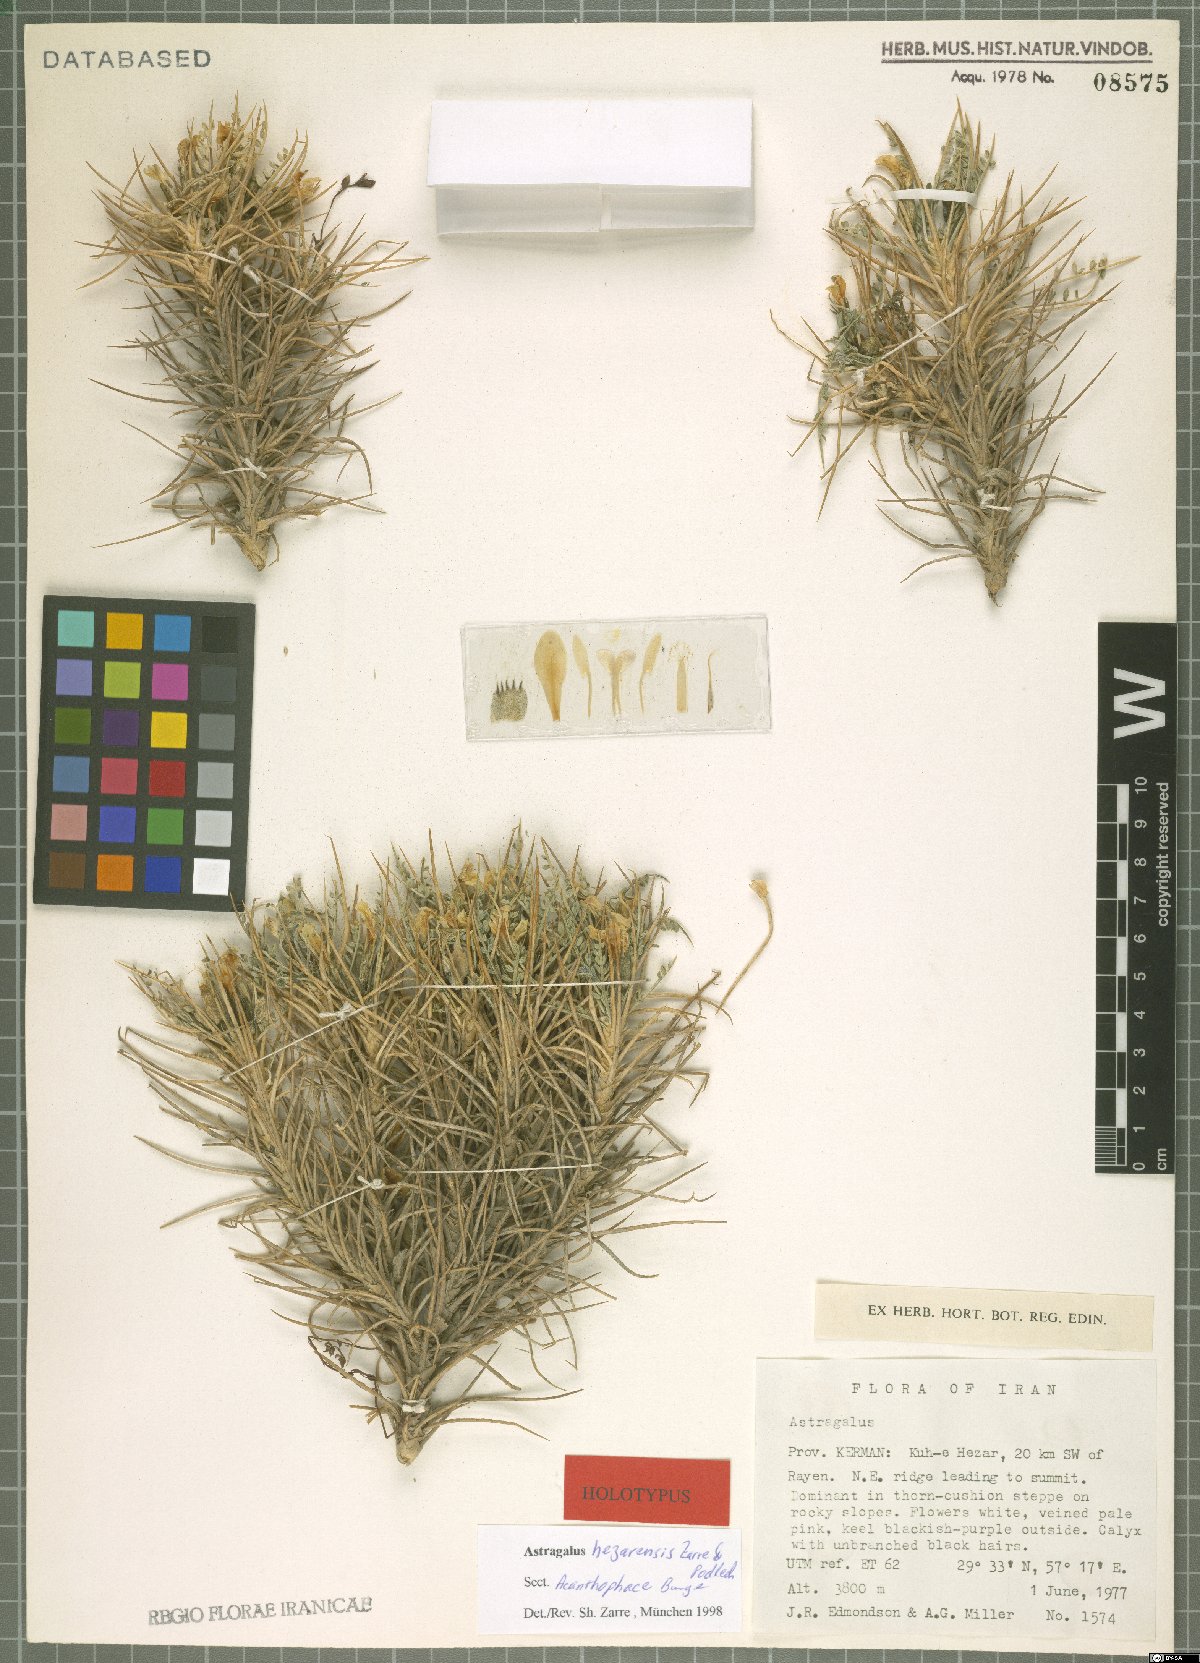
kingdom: Plantae
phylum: Tracheophyta
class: Magnoliopsida
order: Fabales
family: Fabaceae
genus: Astragalus
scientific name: Astragalus hezarensis
